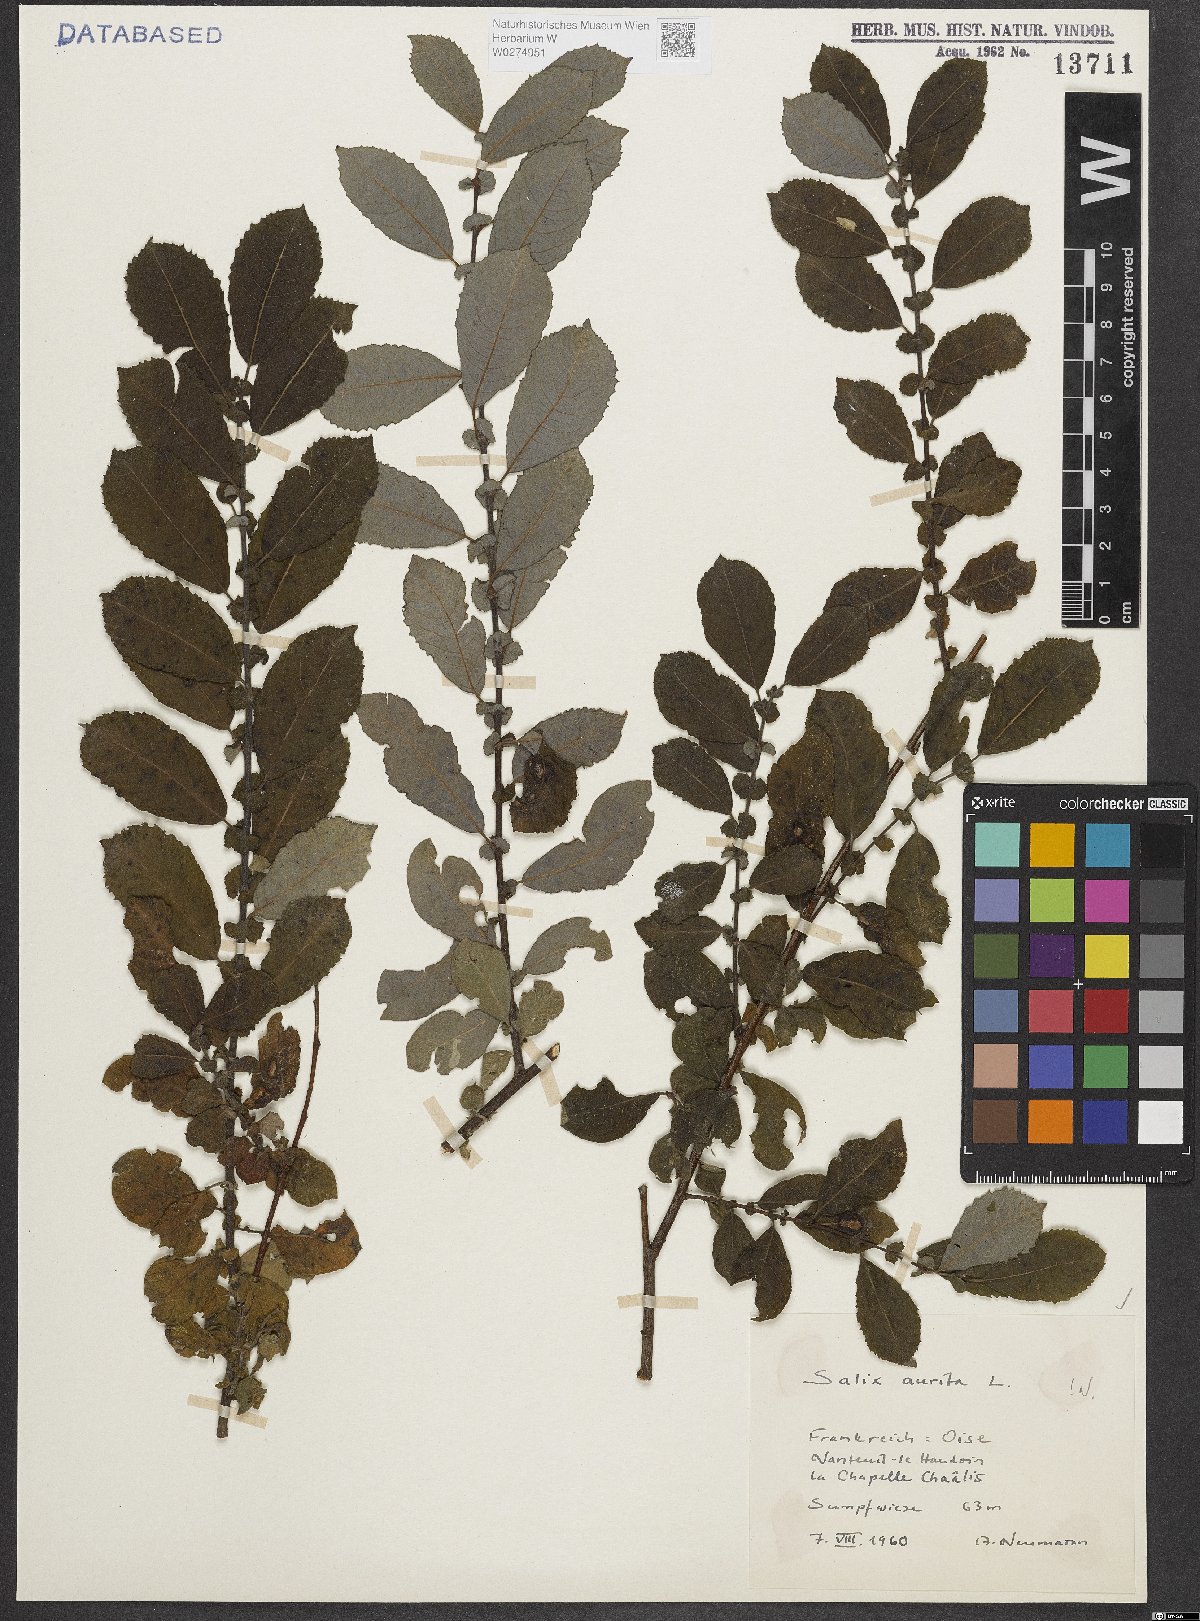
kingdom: Plantae
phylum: Tracheophyta
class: Magnoliopsida
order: Malpighiales
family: Salicaceae
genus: Salix
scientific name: Salix aurita
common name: Eared willow
